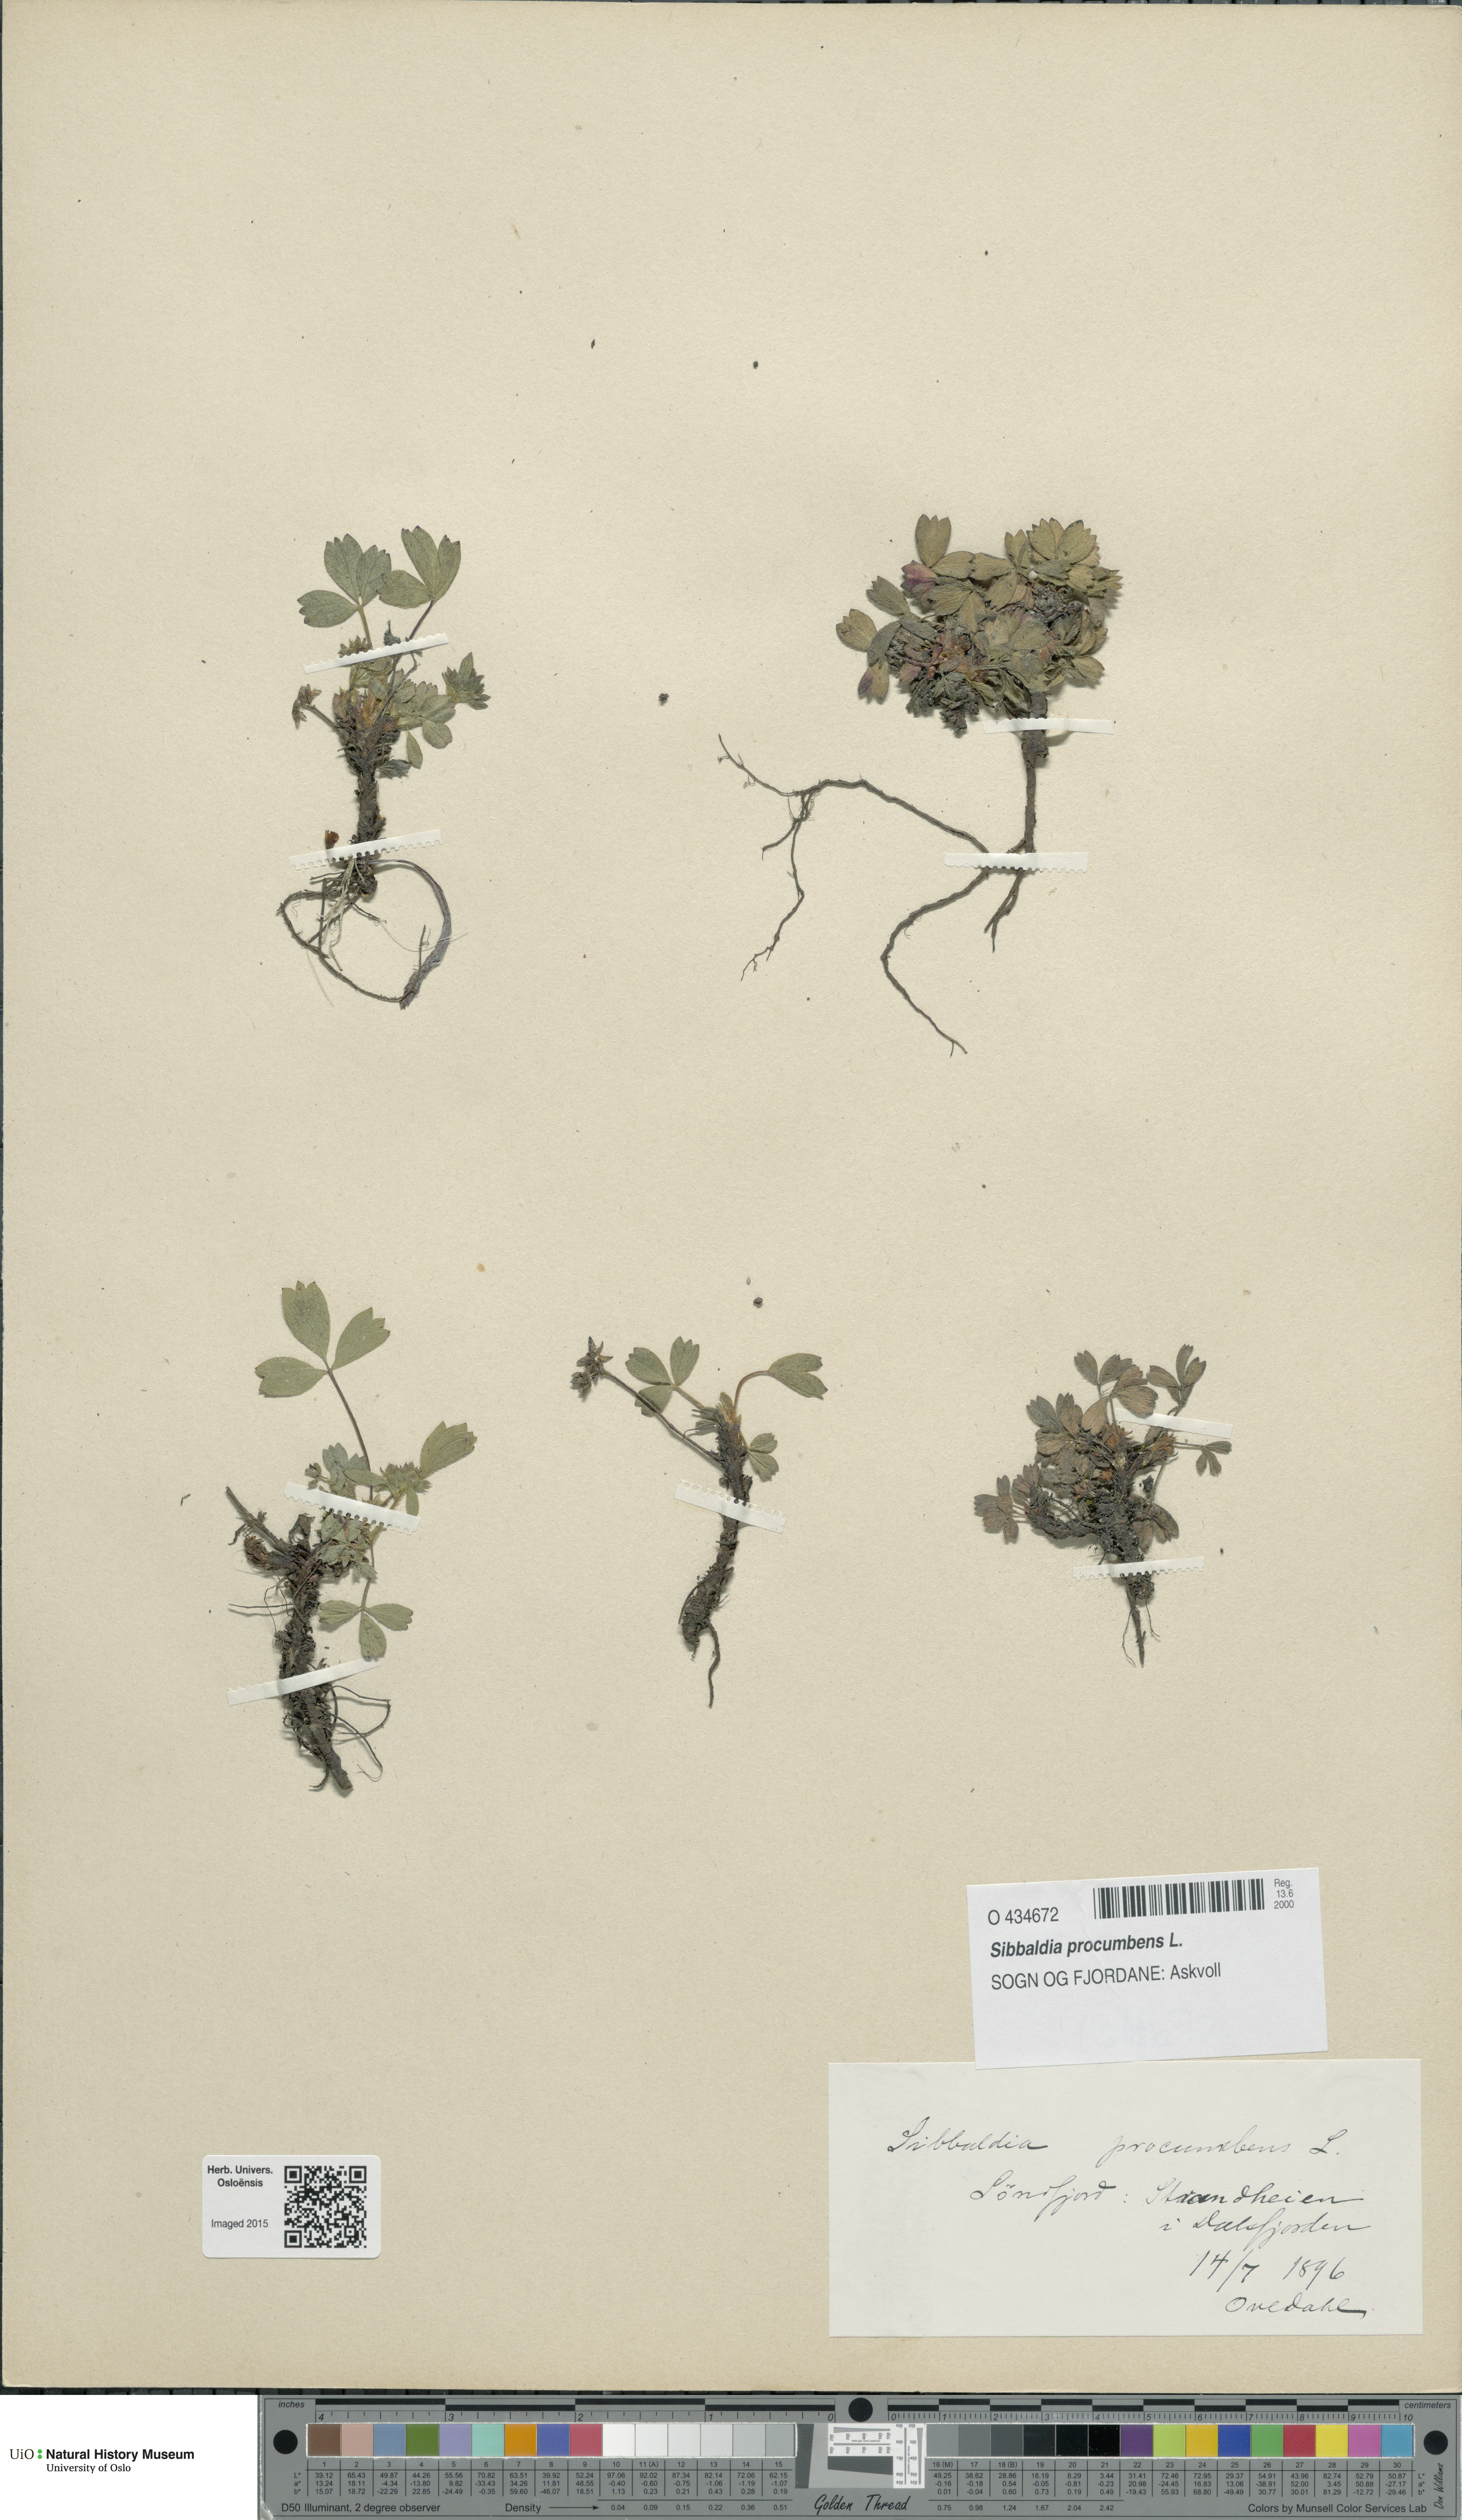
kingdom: Plantae
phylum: Tracheophyta
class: Magnoliopsida
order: Rosales
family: Rosaceae
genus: Sibbaldia
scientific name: Sibbaldia procumbens
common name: Creeping sibbaldia
